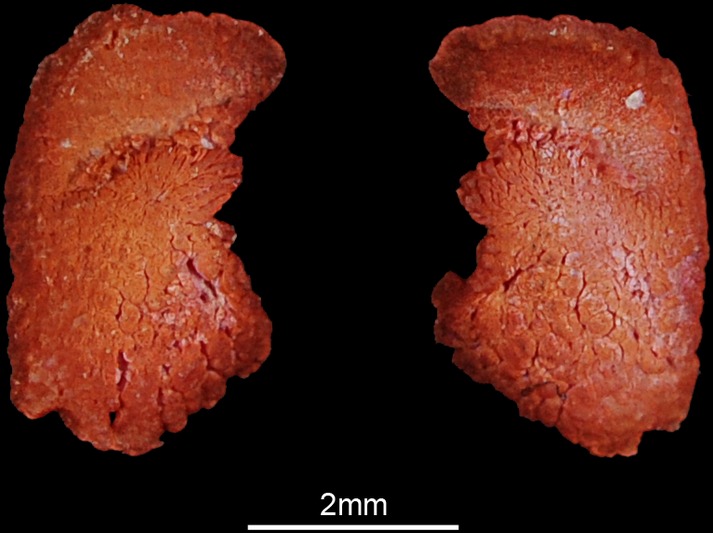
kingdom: Animalia
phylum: Chordata
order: Siluriformes
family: Clariidae
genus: Heterobranchus
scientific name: Heterobranchus bidorsalis
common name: Eel-like fattyfin catfish
